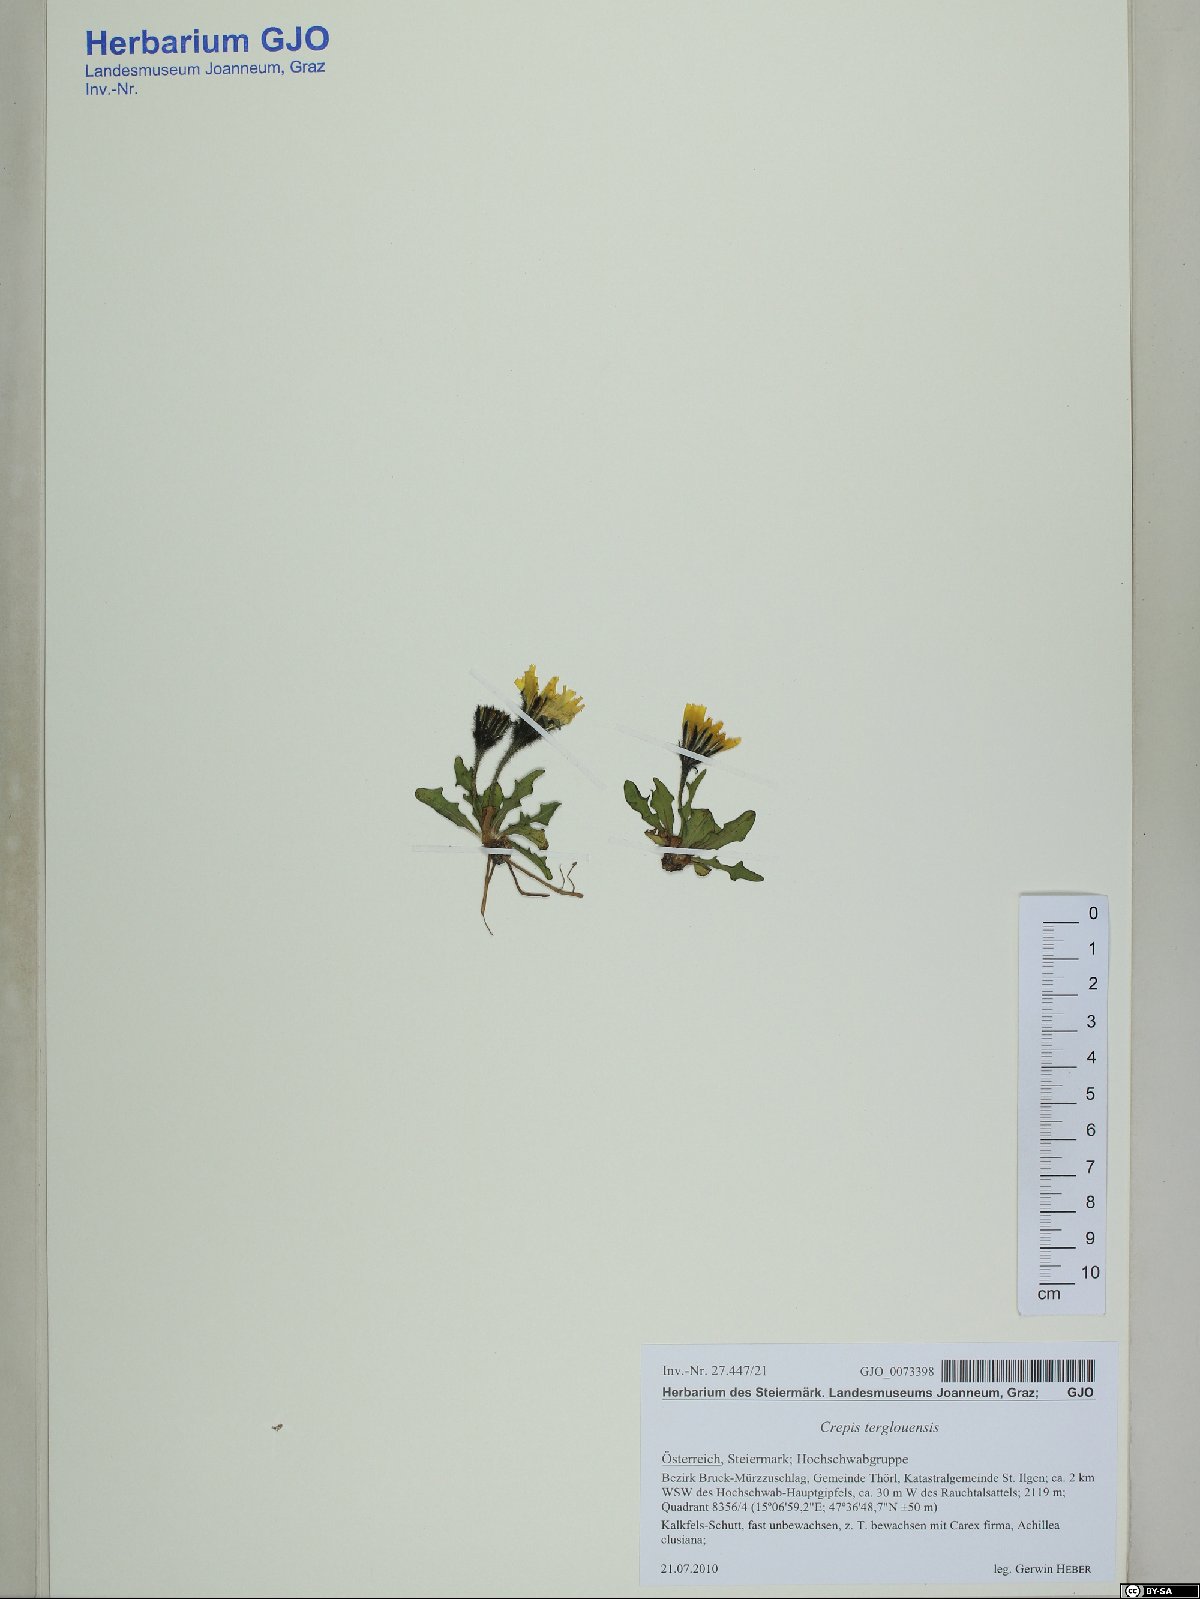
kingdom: Plantae
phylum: Tracheophyta
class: Magnoliopsida
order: Asterales
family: Asteraceae
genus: Crepis
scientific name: Crepis terglouensis
